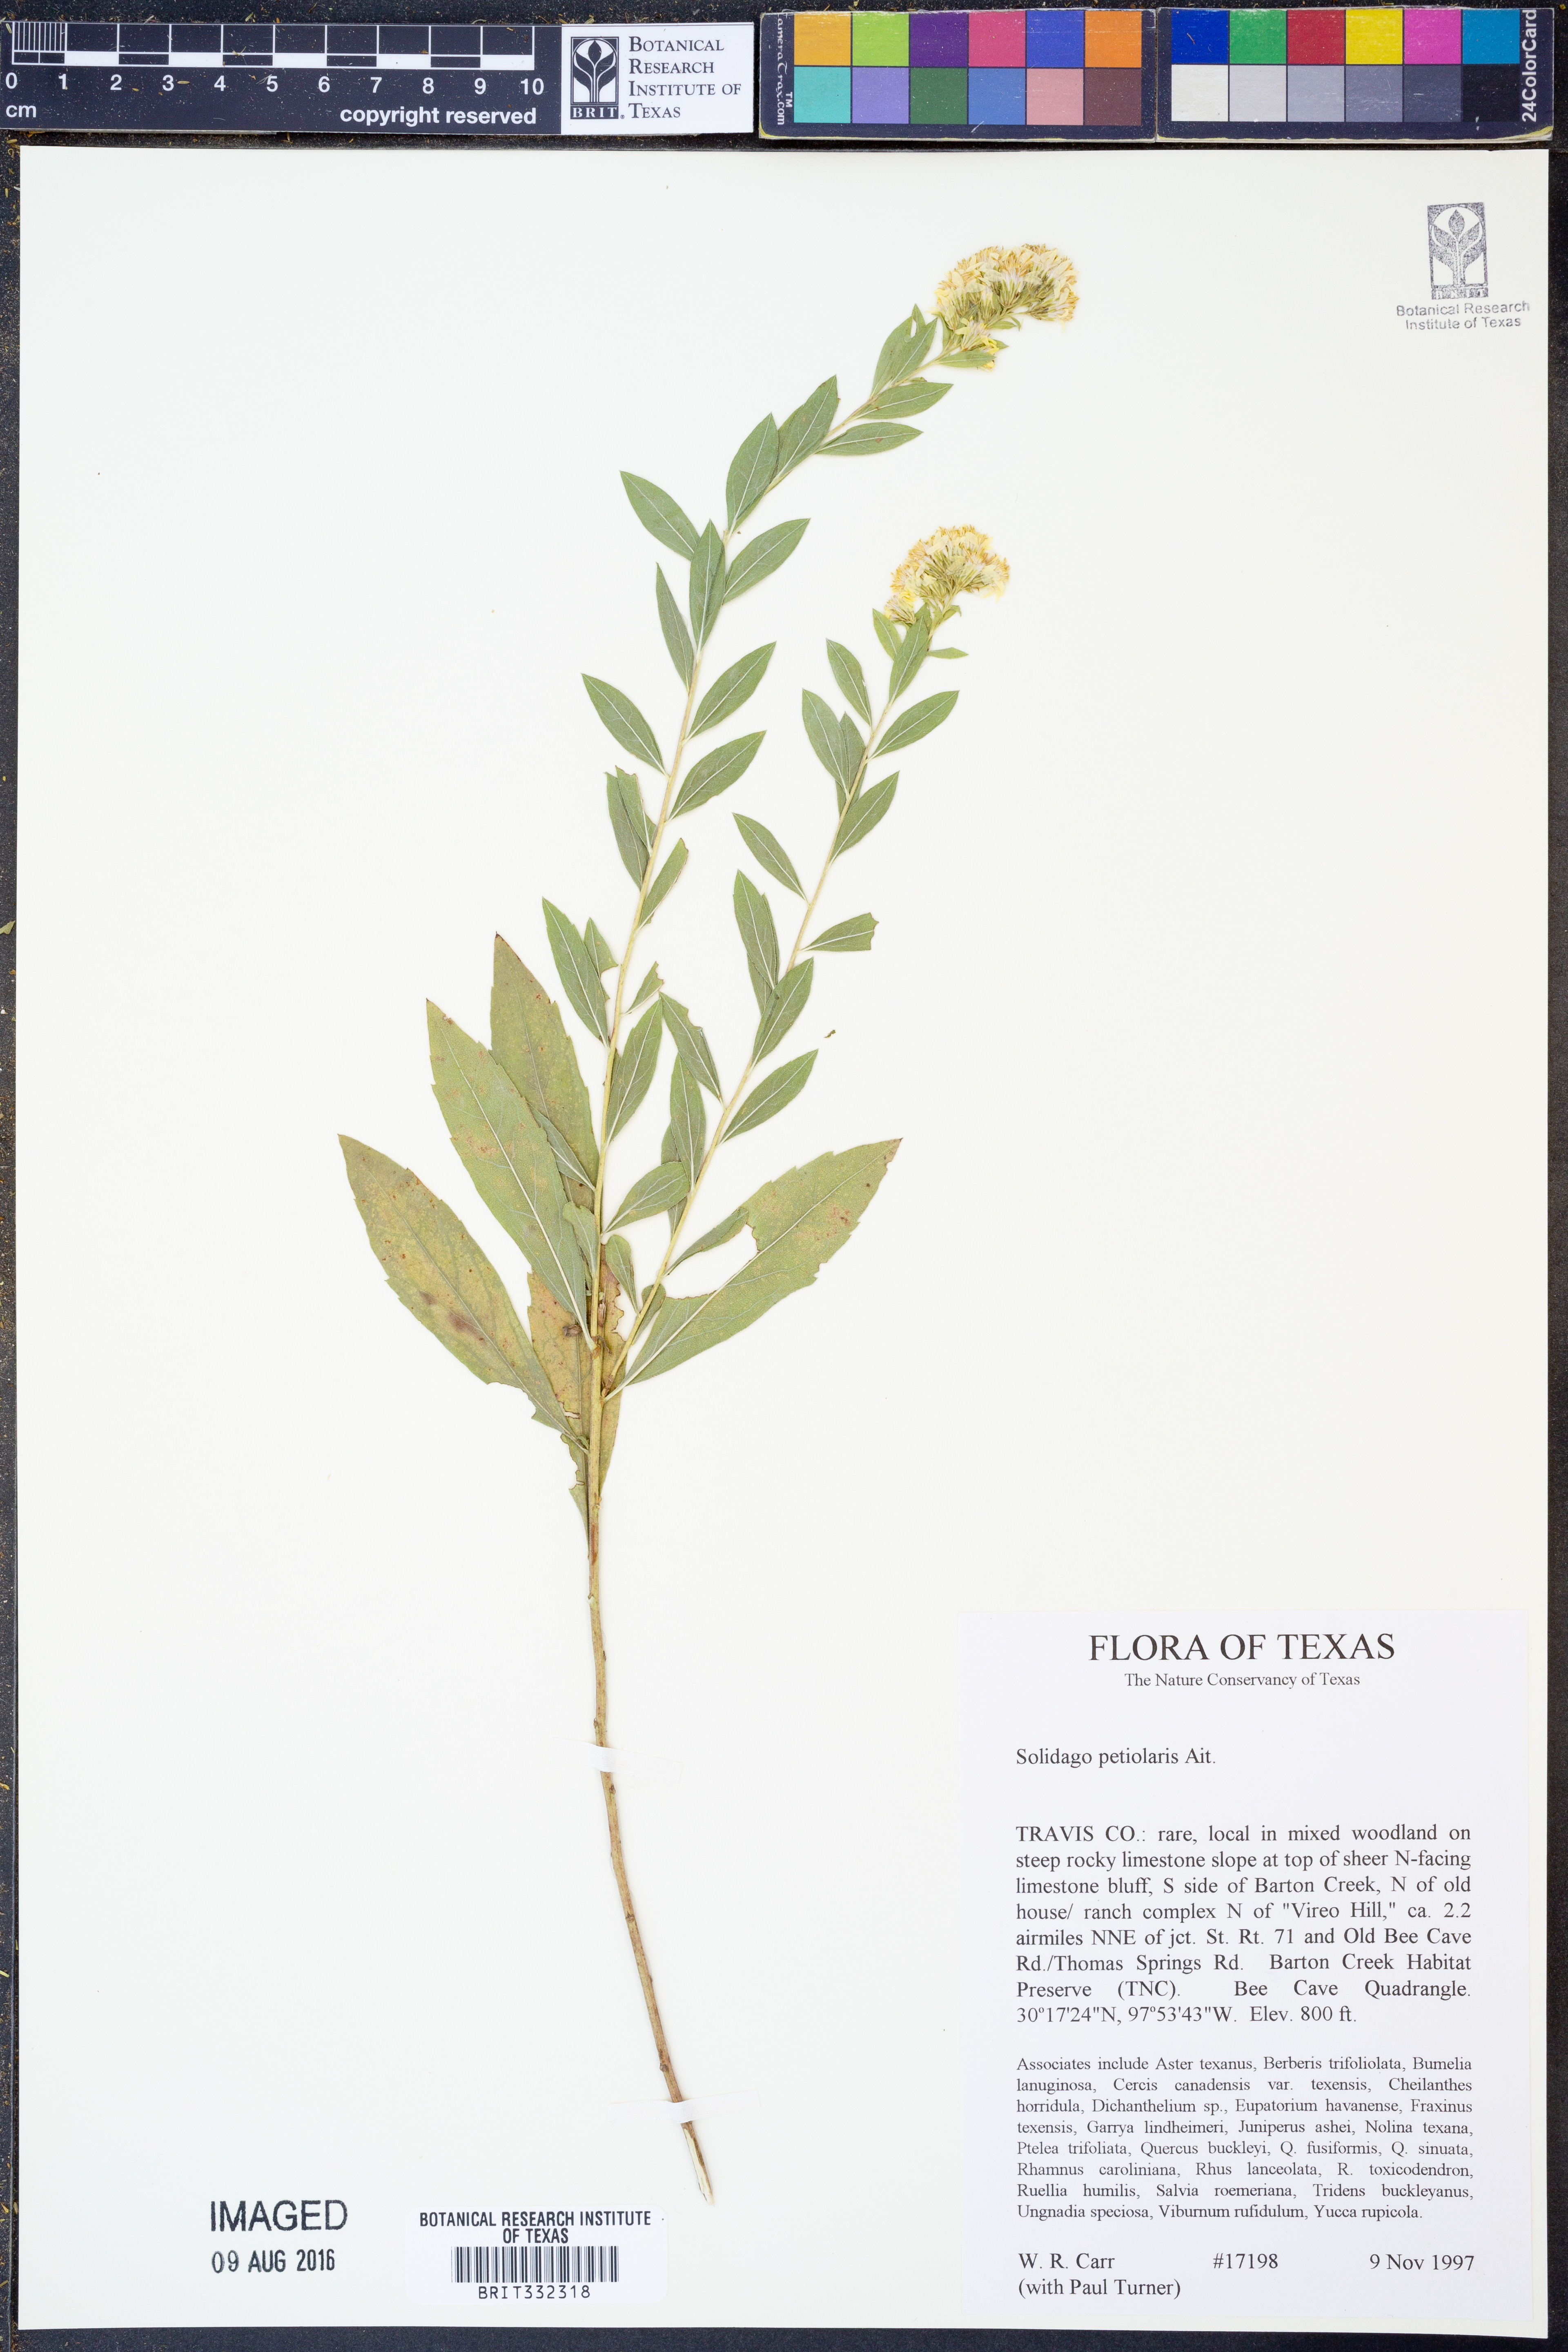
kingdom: Plantae
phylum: Tracheophyta
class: Magnoliopsida
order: Asterales
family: Asteraceae
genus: Solidago
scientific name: Solidago petiolaris
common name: Downy ragged goldenrod
